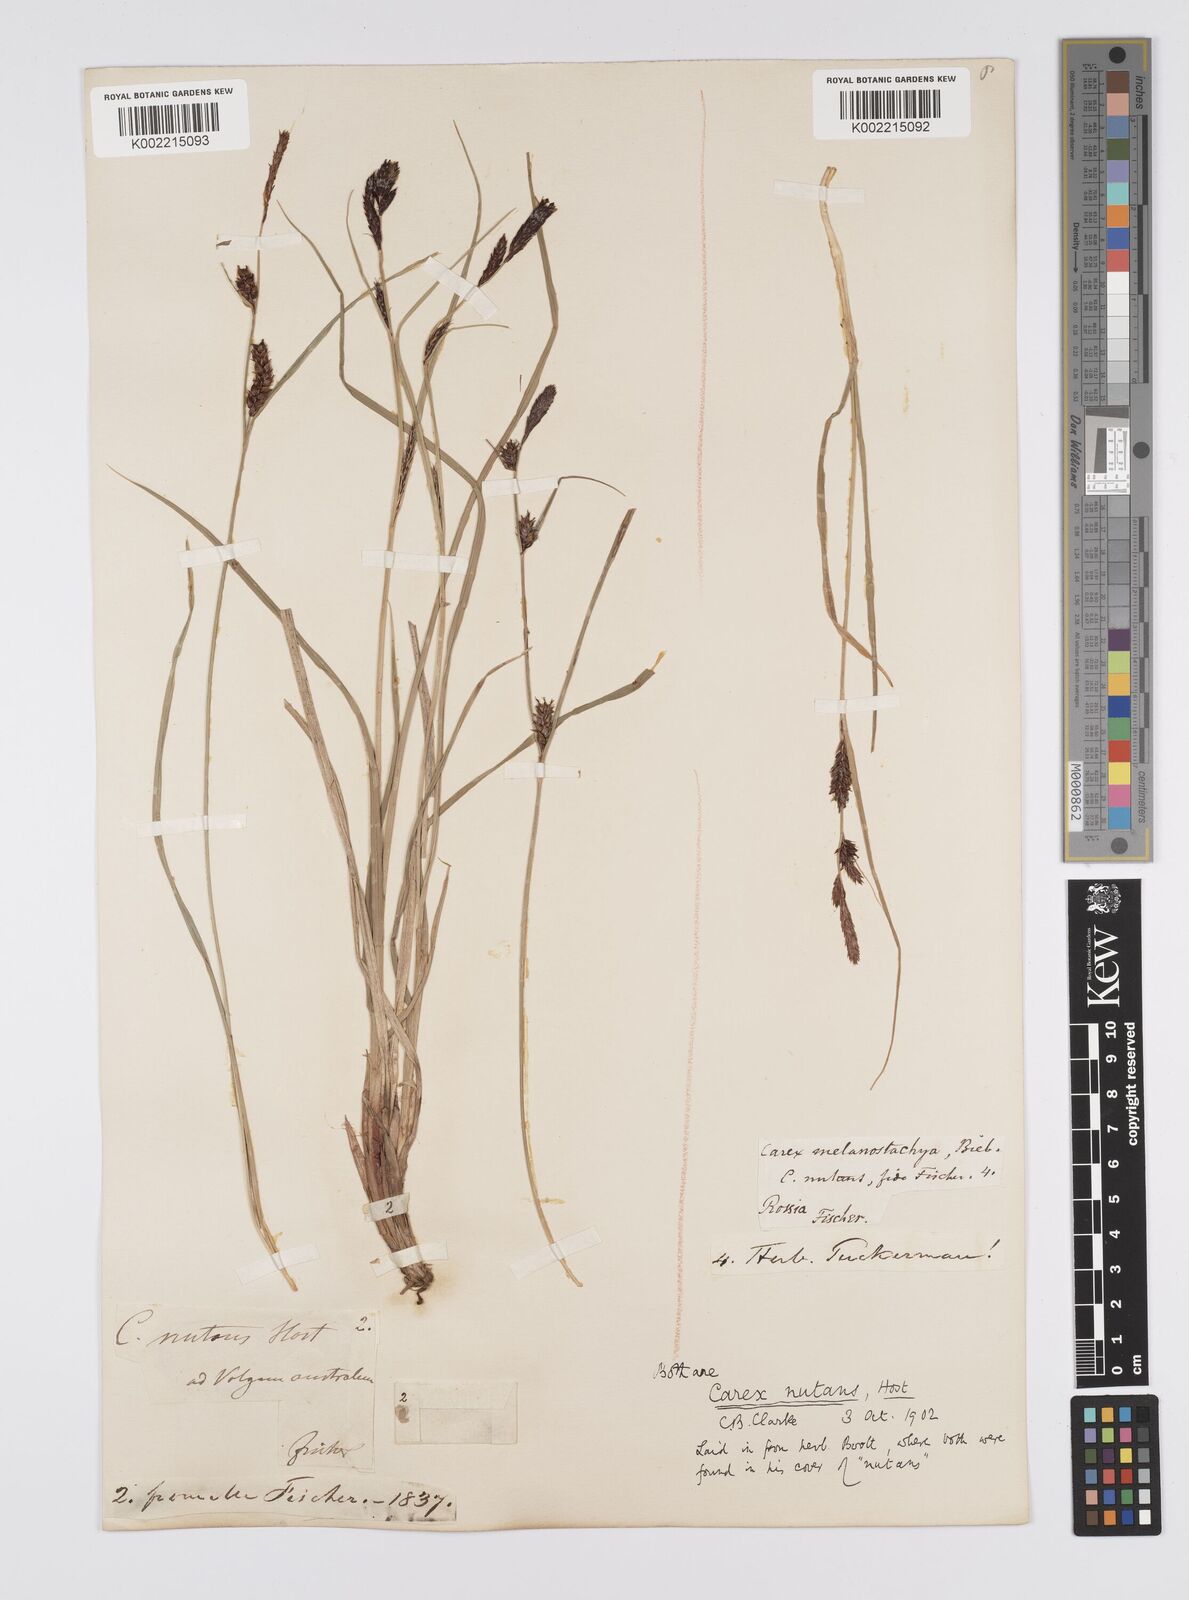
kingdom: Plantae
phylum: Tracheophyta
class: Liliopsida
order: Poales
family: Cyperaceae
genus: Carex
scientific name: Carex melanostachya
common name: Black-spiked sedge
